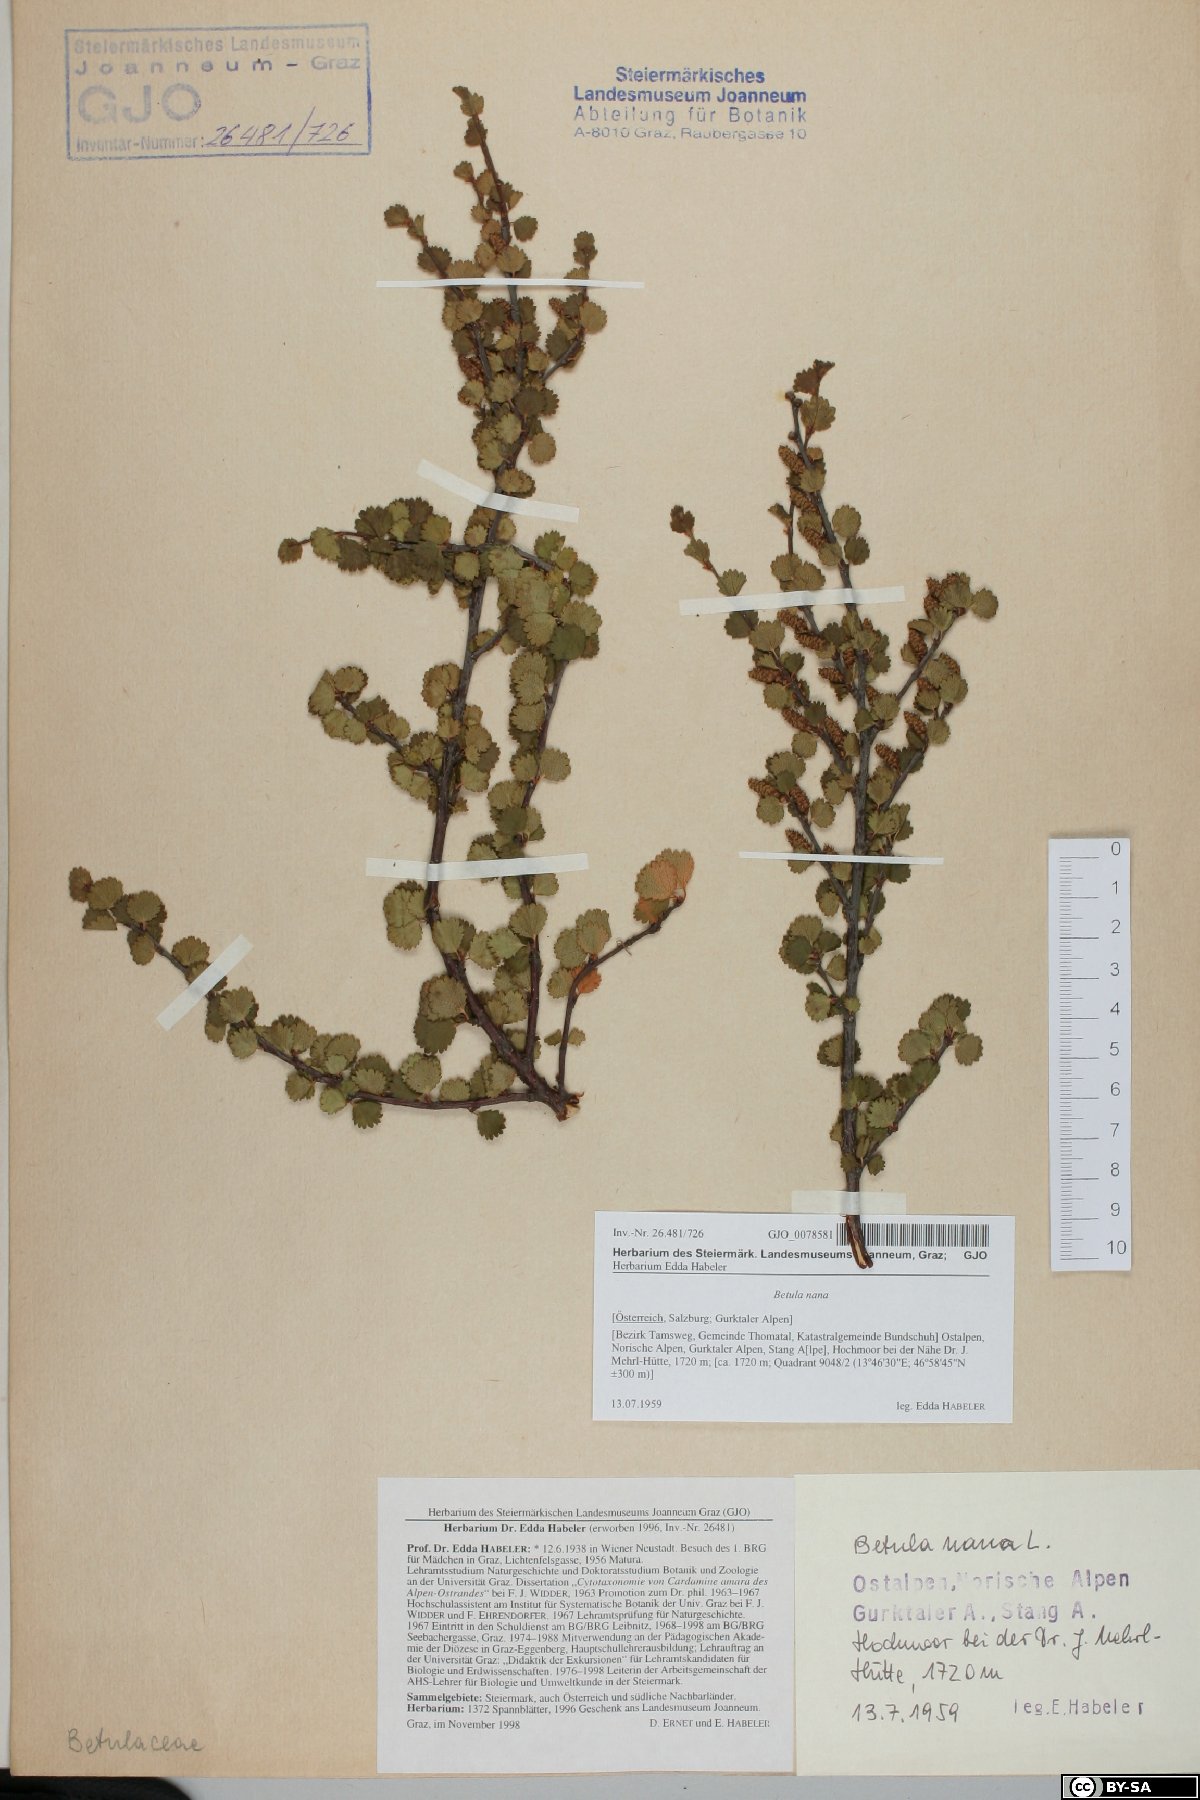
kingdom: Plantae
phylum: Tracheophyta
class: Magnoliopsida
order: Fagales
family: Betulaceae
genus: Betula
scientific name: Betula nana
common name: Arctic dwarf birch
